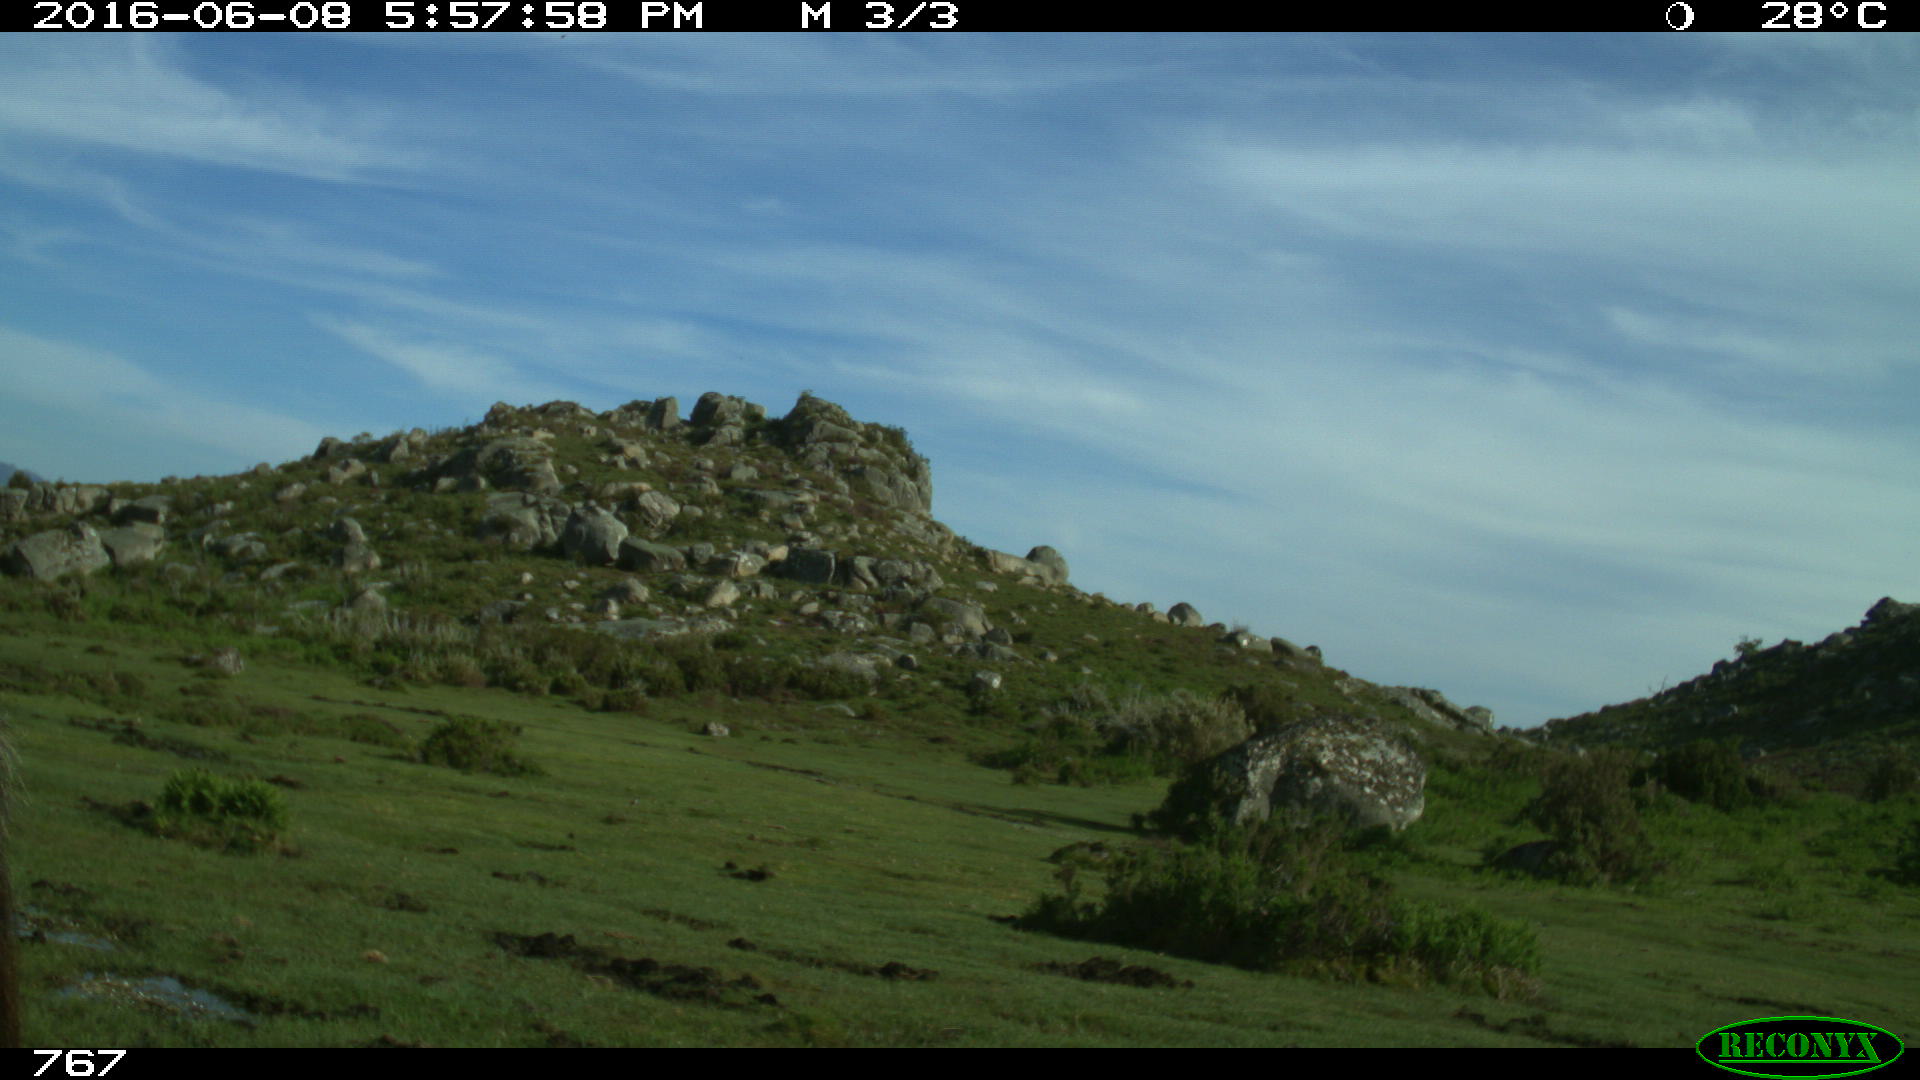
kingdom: Animalia
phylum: Chordata
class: Mammalia
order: Perissodactyla
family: Equidae
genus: Equus
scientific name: Equus caballus
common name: Horse
